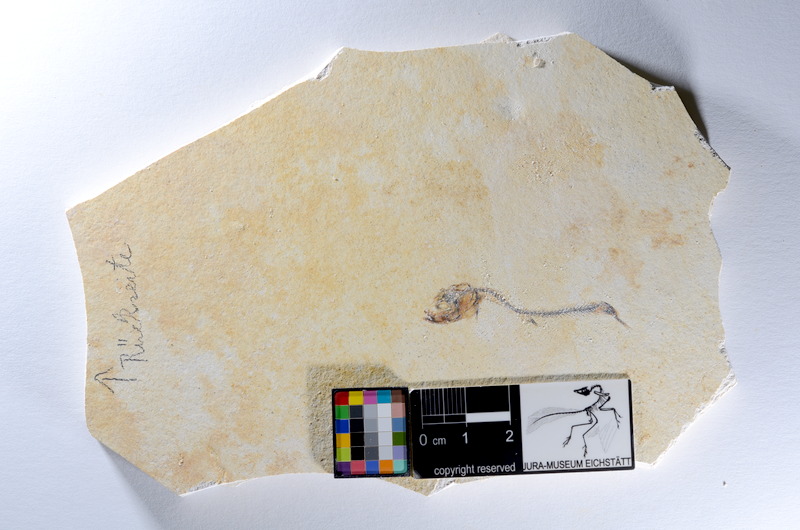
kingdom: Animalia
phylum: Chordata
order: Salmoniformes
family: Orthogonikleithridae
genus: Orthogonikleithrus
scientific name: Orthogonikleithrus hoelli
